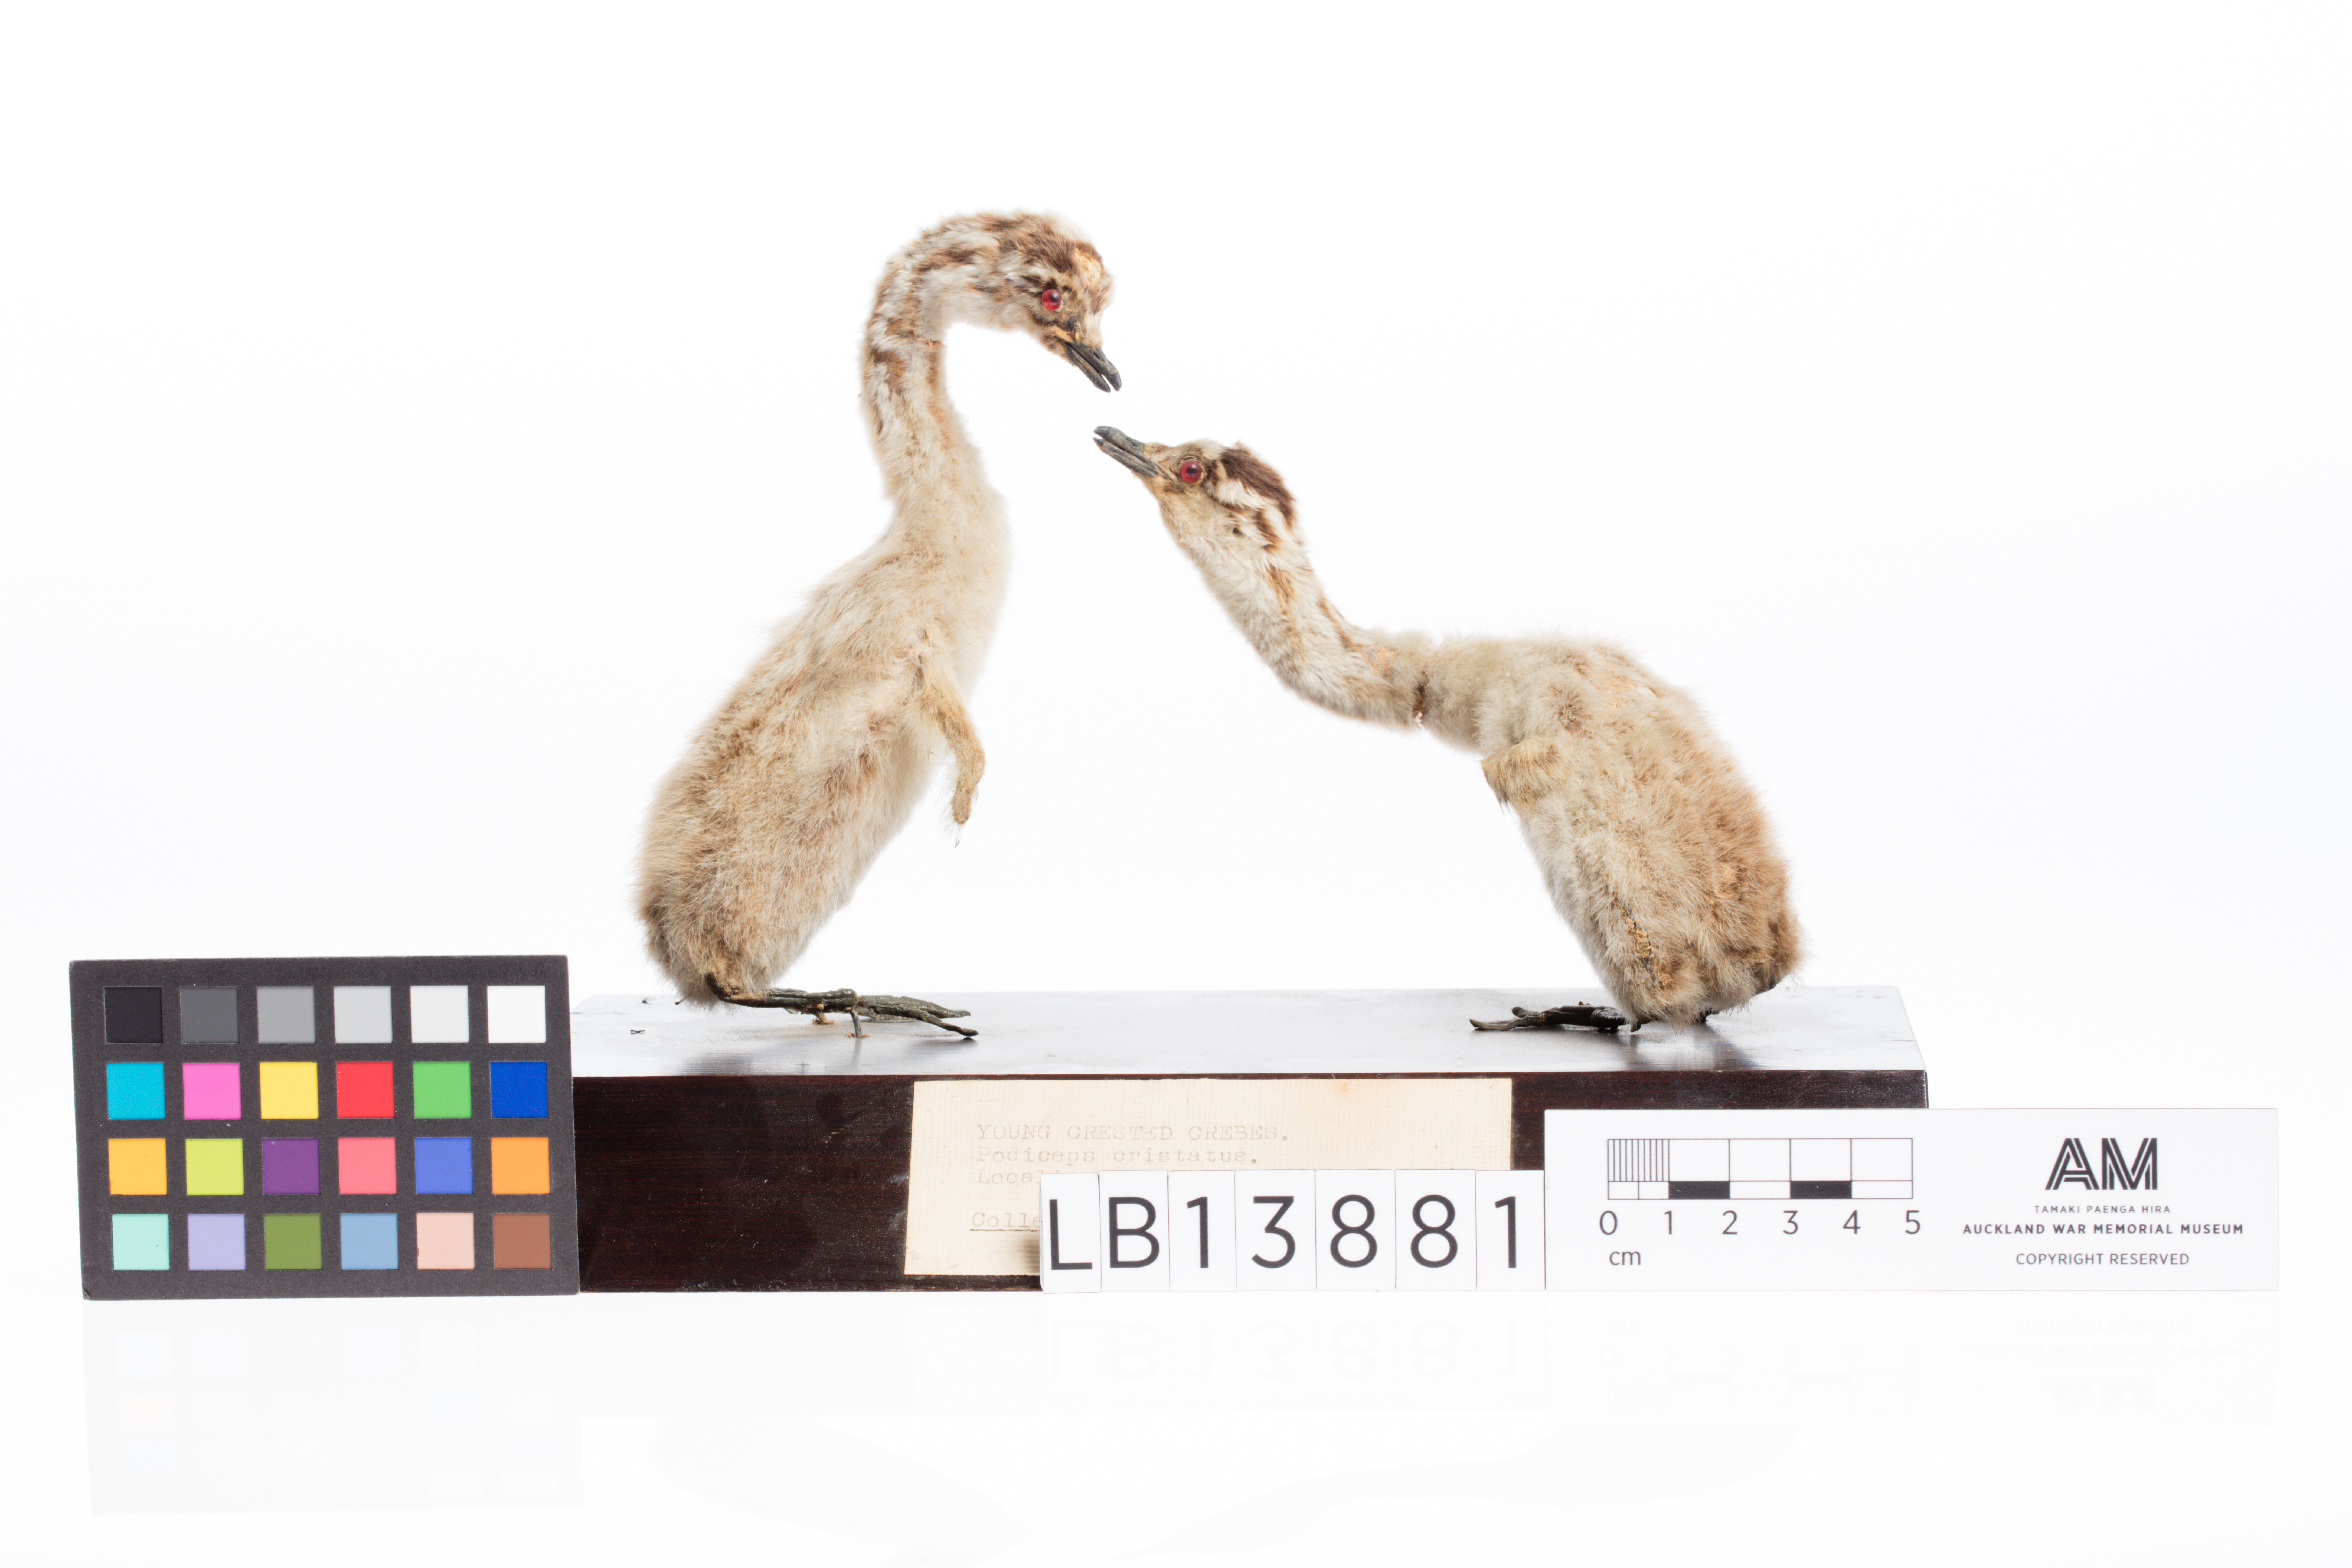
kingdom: Animalia
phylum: Chordata
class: Aves
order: Podicipediformes
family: Podicipedidae
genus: Podiceps
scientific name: Podiceps cristatus
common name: Great crested grebe
